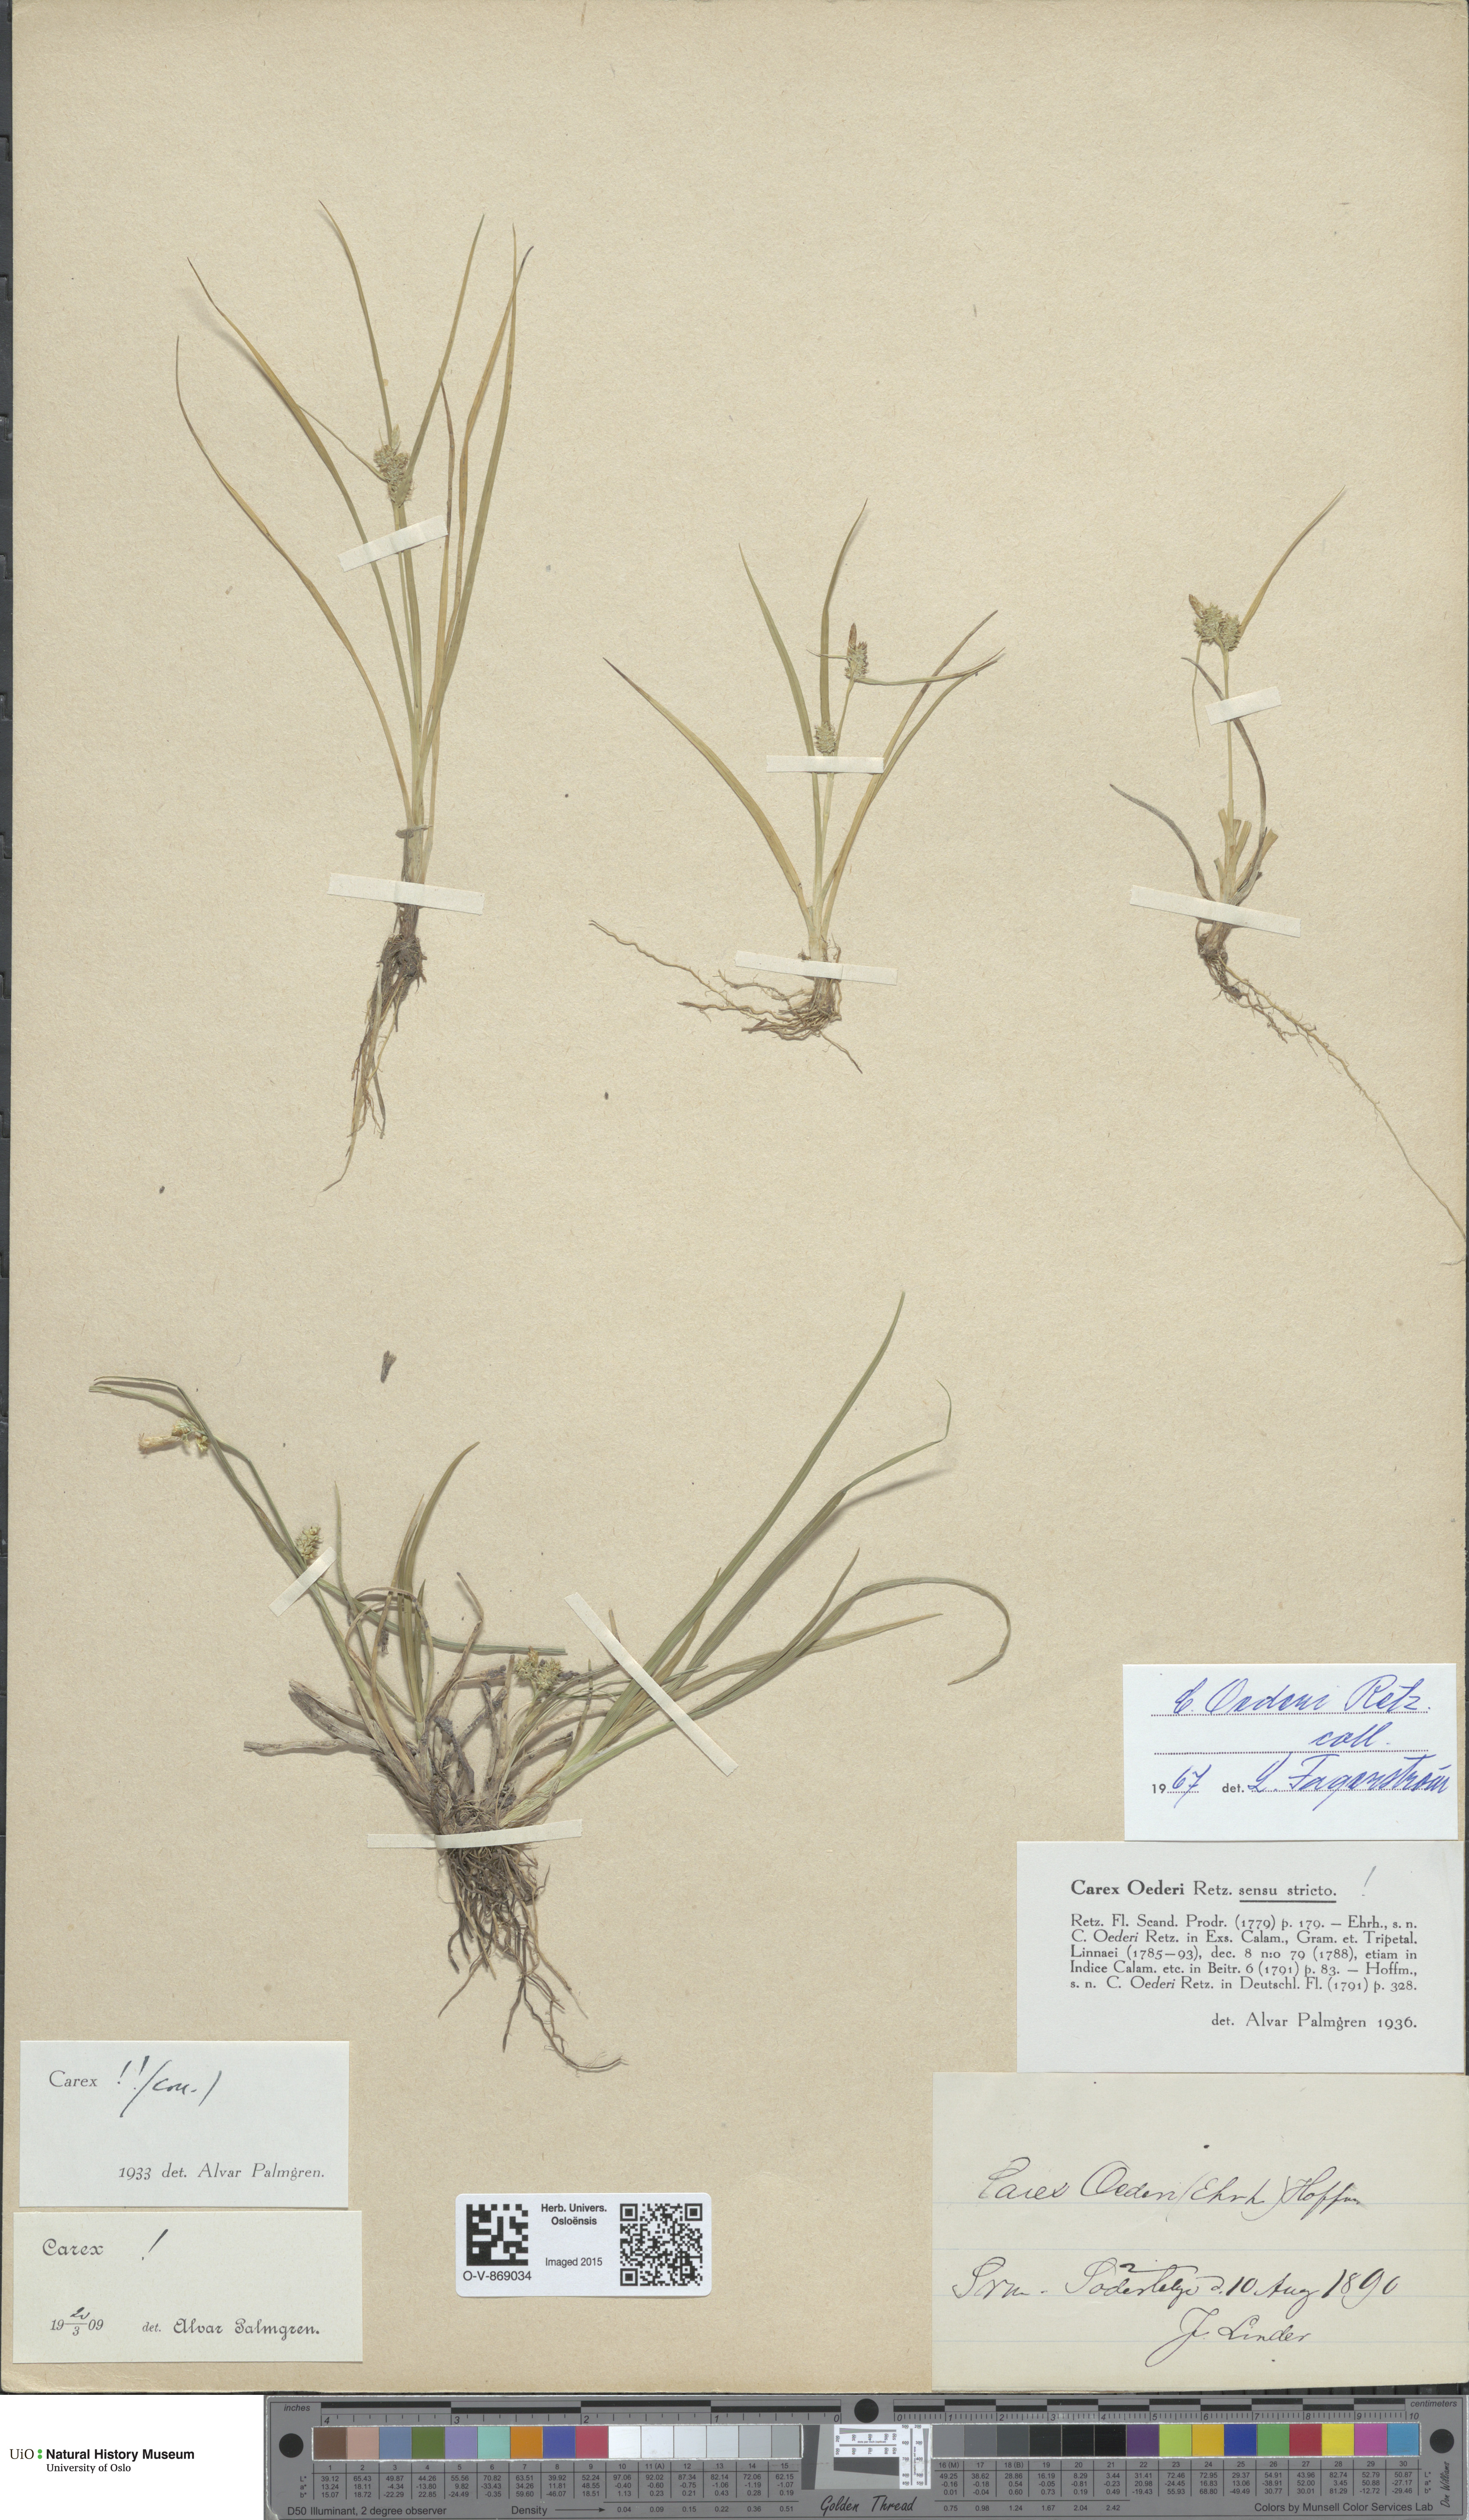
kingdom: Plantae
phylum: Tracheophyta
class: Liliopsida
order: Poales
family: Cyperaceae
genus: Carex
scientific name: Carex oederi
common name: Common & small-fruited yellow-sedge
